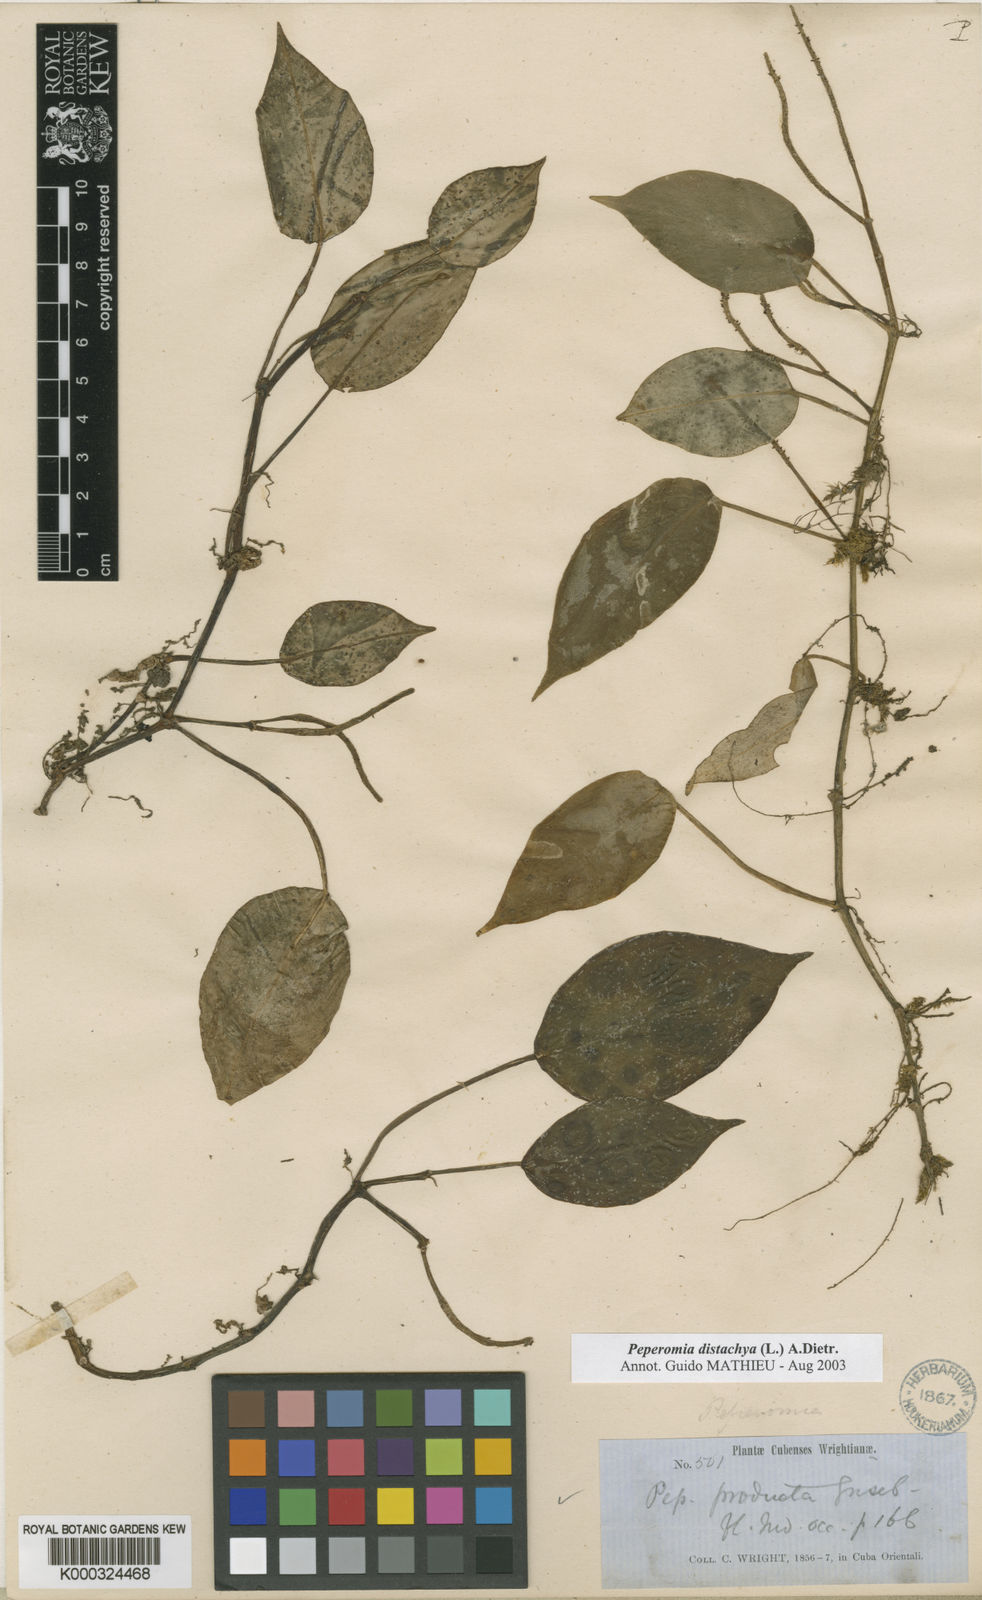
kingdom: Plantae
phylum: Tracheophyta
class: Magnoliopsida
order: Piperales
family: Piperaceae
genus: Peperomia
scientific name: Peperomia distachyos
